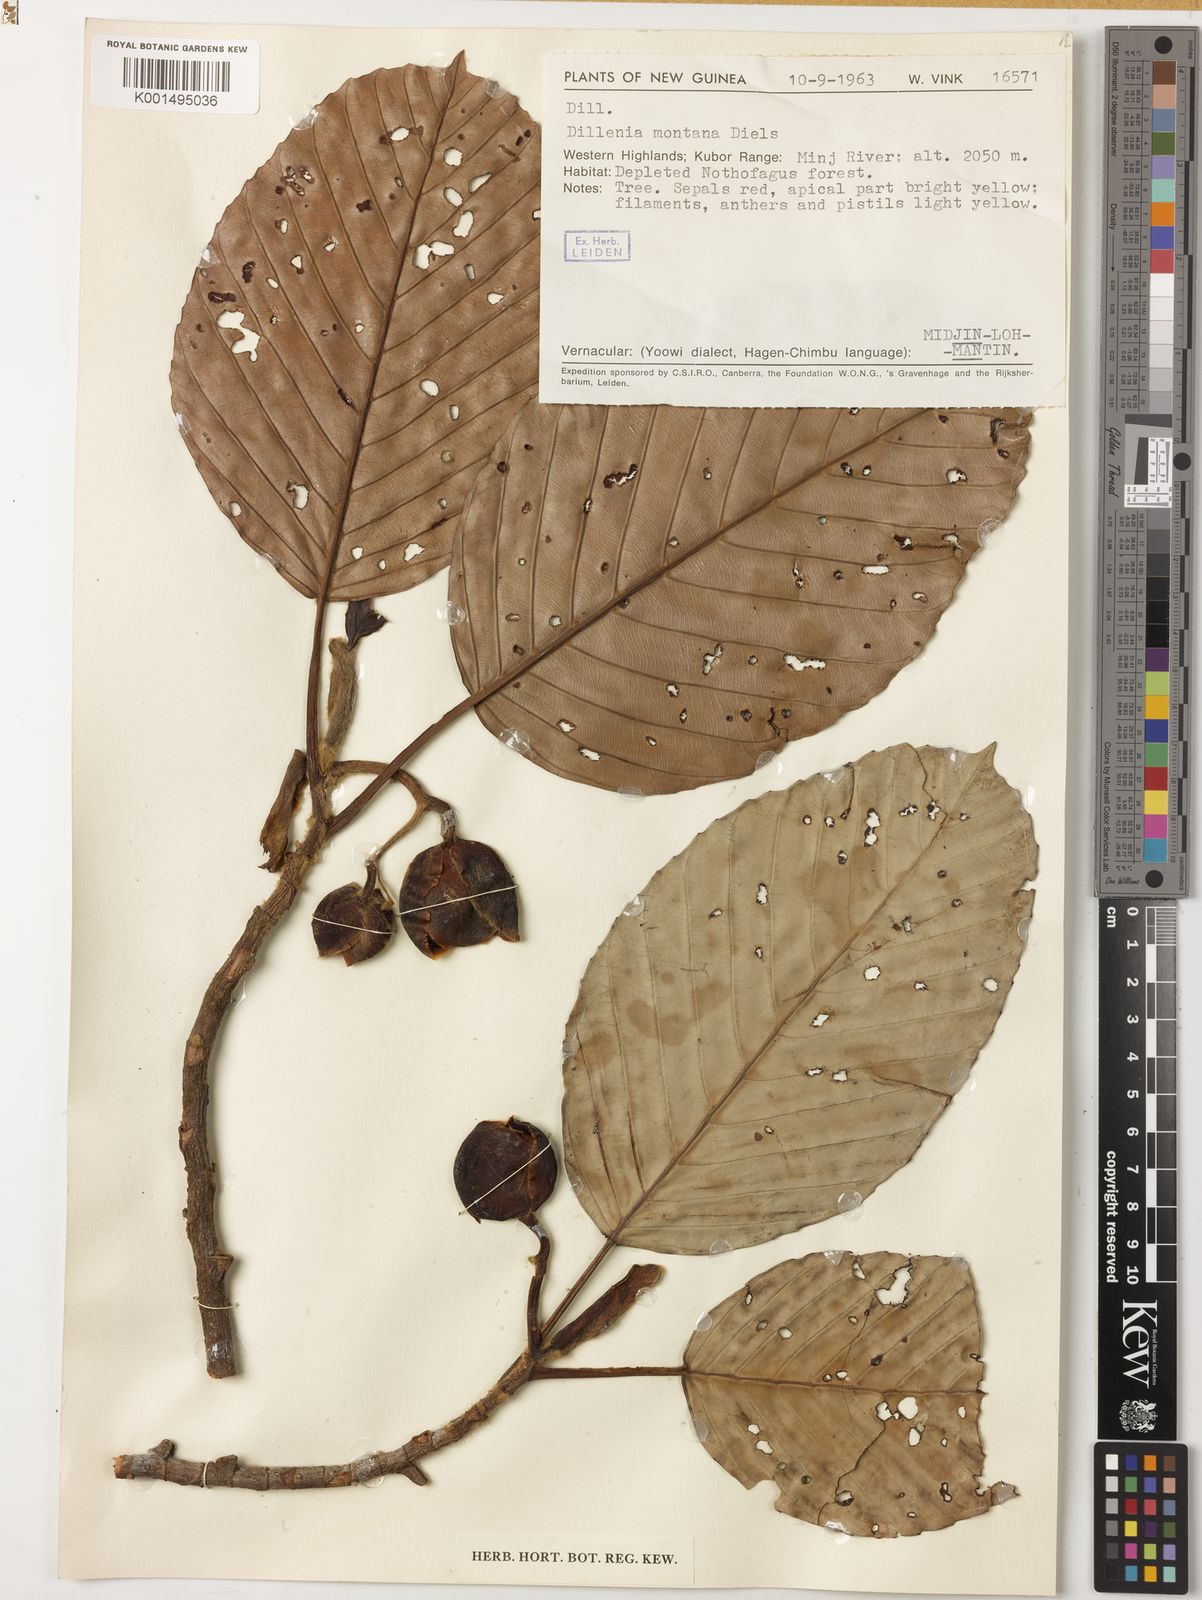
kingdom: Plantae
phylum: Tracheophyta
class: Magnoliopsida
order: Dilleniales
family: Dilleniaceae
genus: Dillenia
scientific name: Dillenia montana
